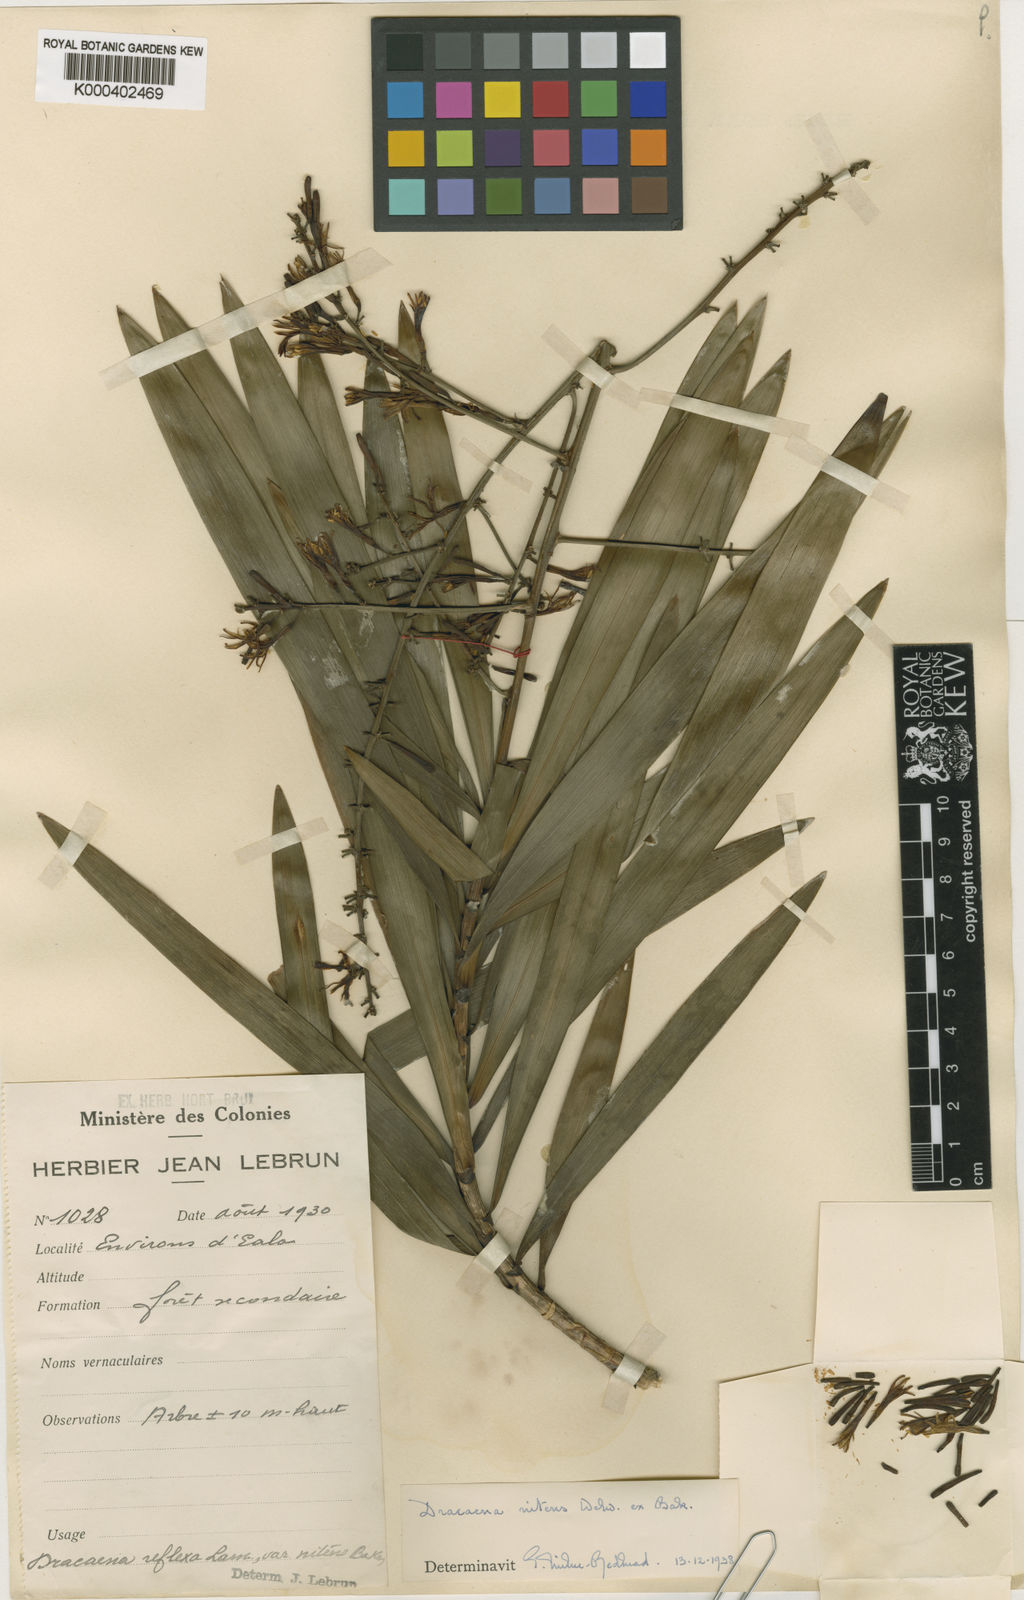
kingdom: Plantae
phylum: Tracheophyta
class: Liliopsida
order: Asparagales
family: Asparagaceae
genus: Dracaena
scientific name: Dracaena nitens
